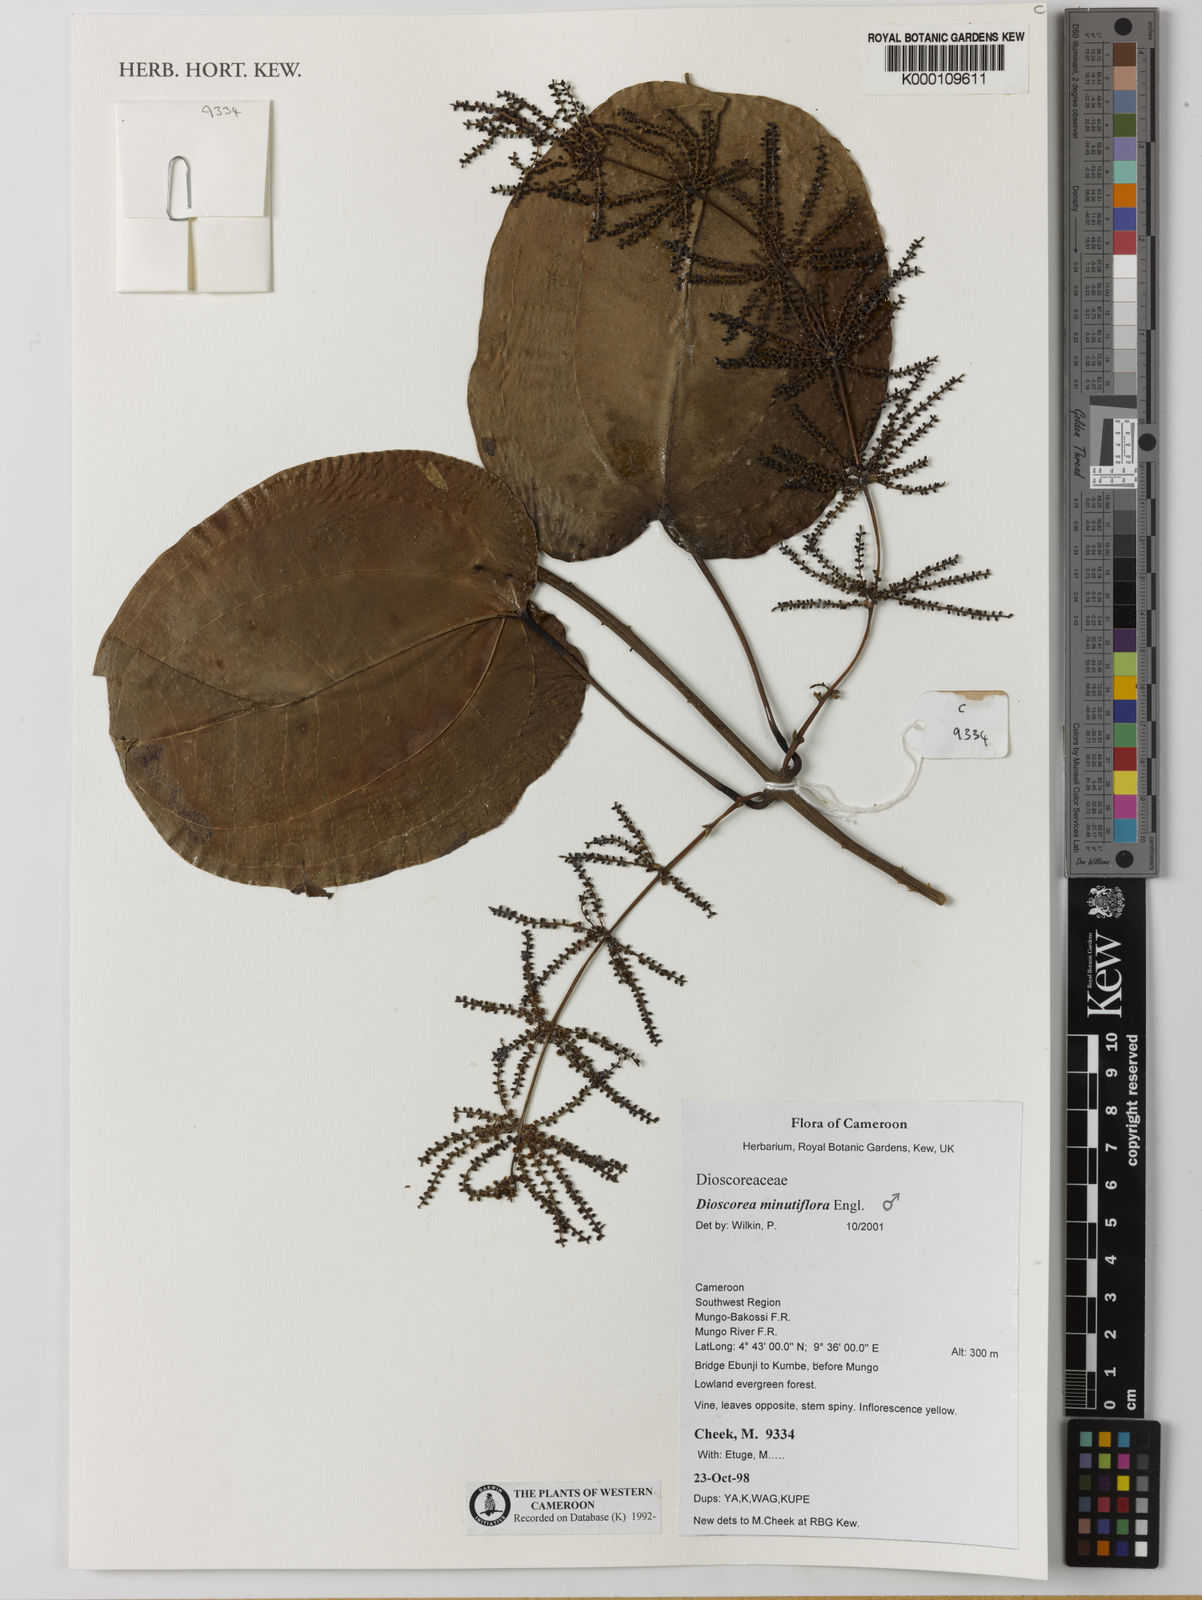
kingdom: Plantae
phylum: Tracheophyta
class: Liliopsida
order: Dioscoreales
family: Dioscoreaceae
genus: Dioscorea
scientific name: Dioscorea minutiflora
